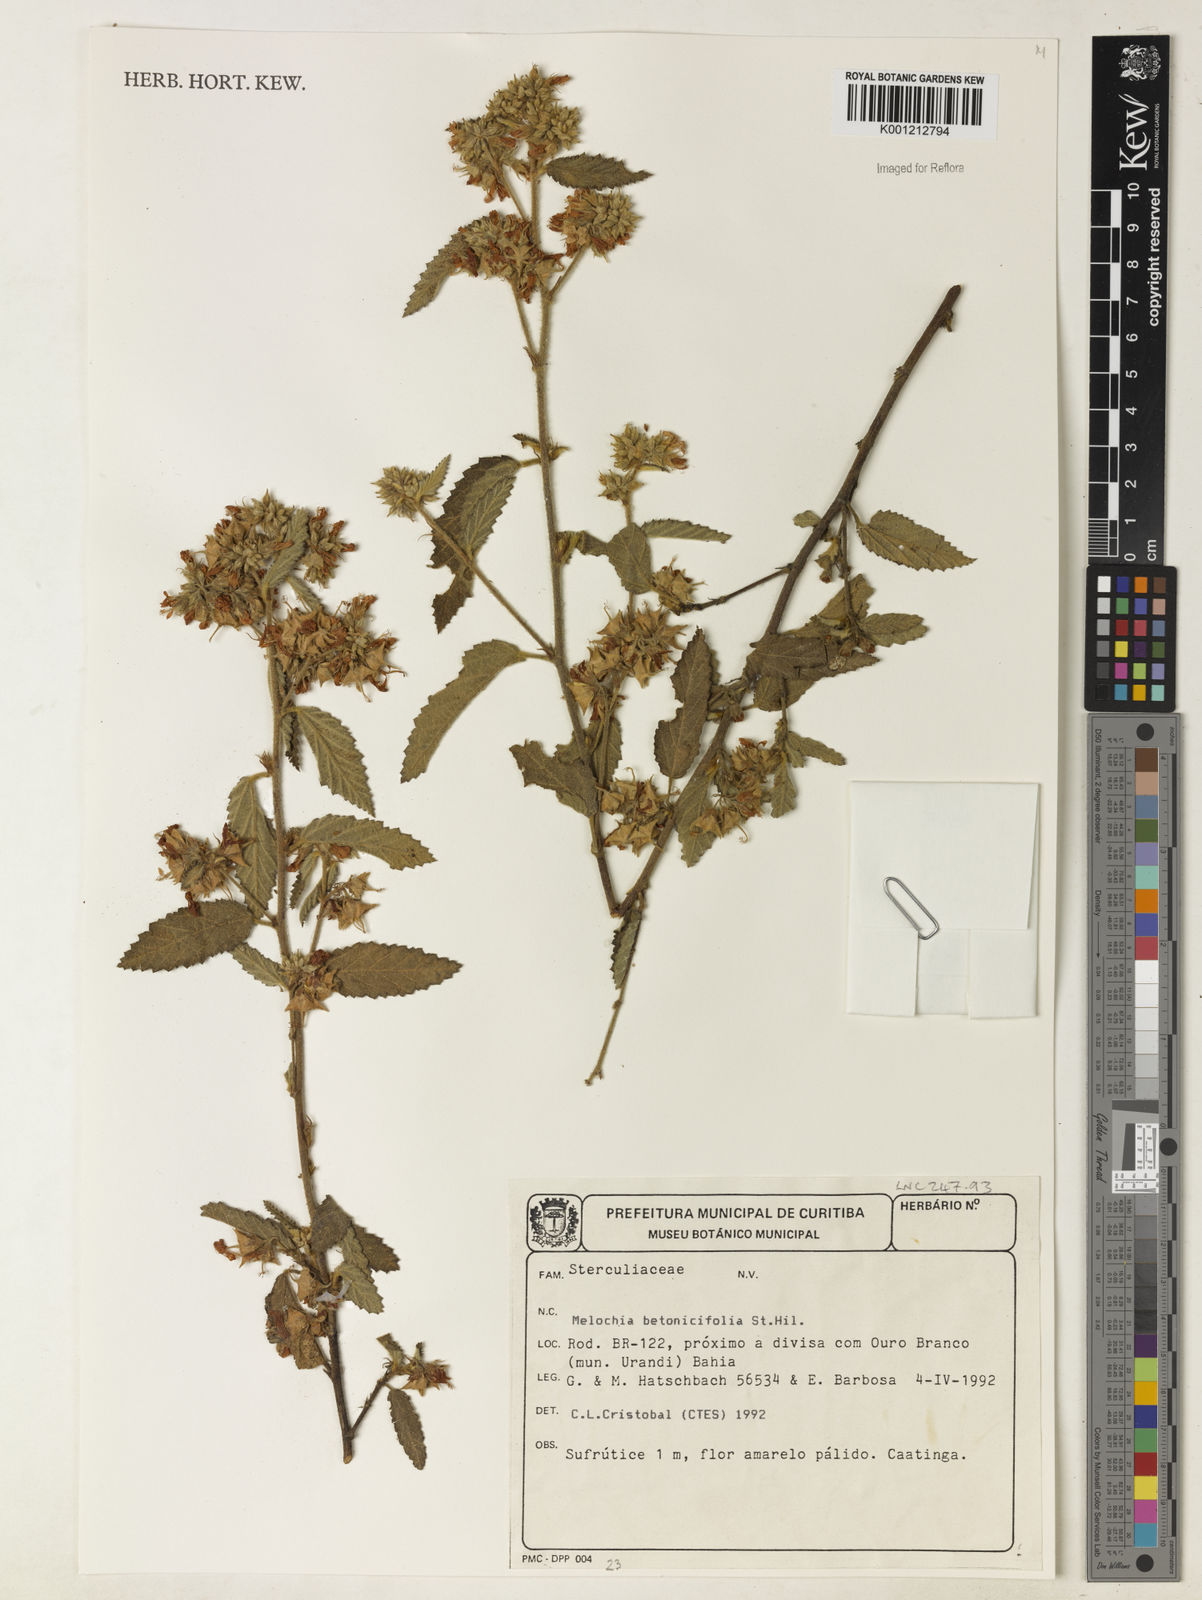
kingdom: Plantae
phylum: Tracheophyta
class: Magnoliopsida
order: Malvales
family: Malvaceae
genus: Melochia
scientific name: Melochia betonicifolia
